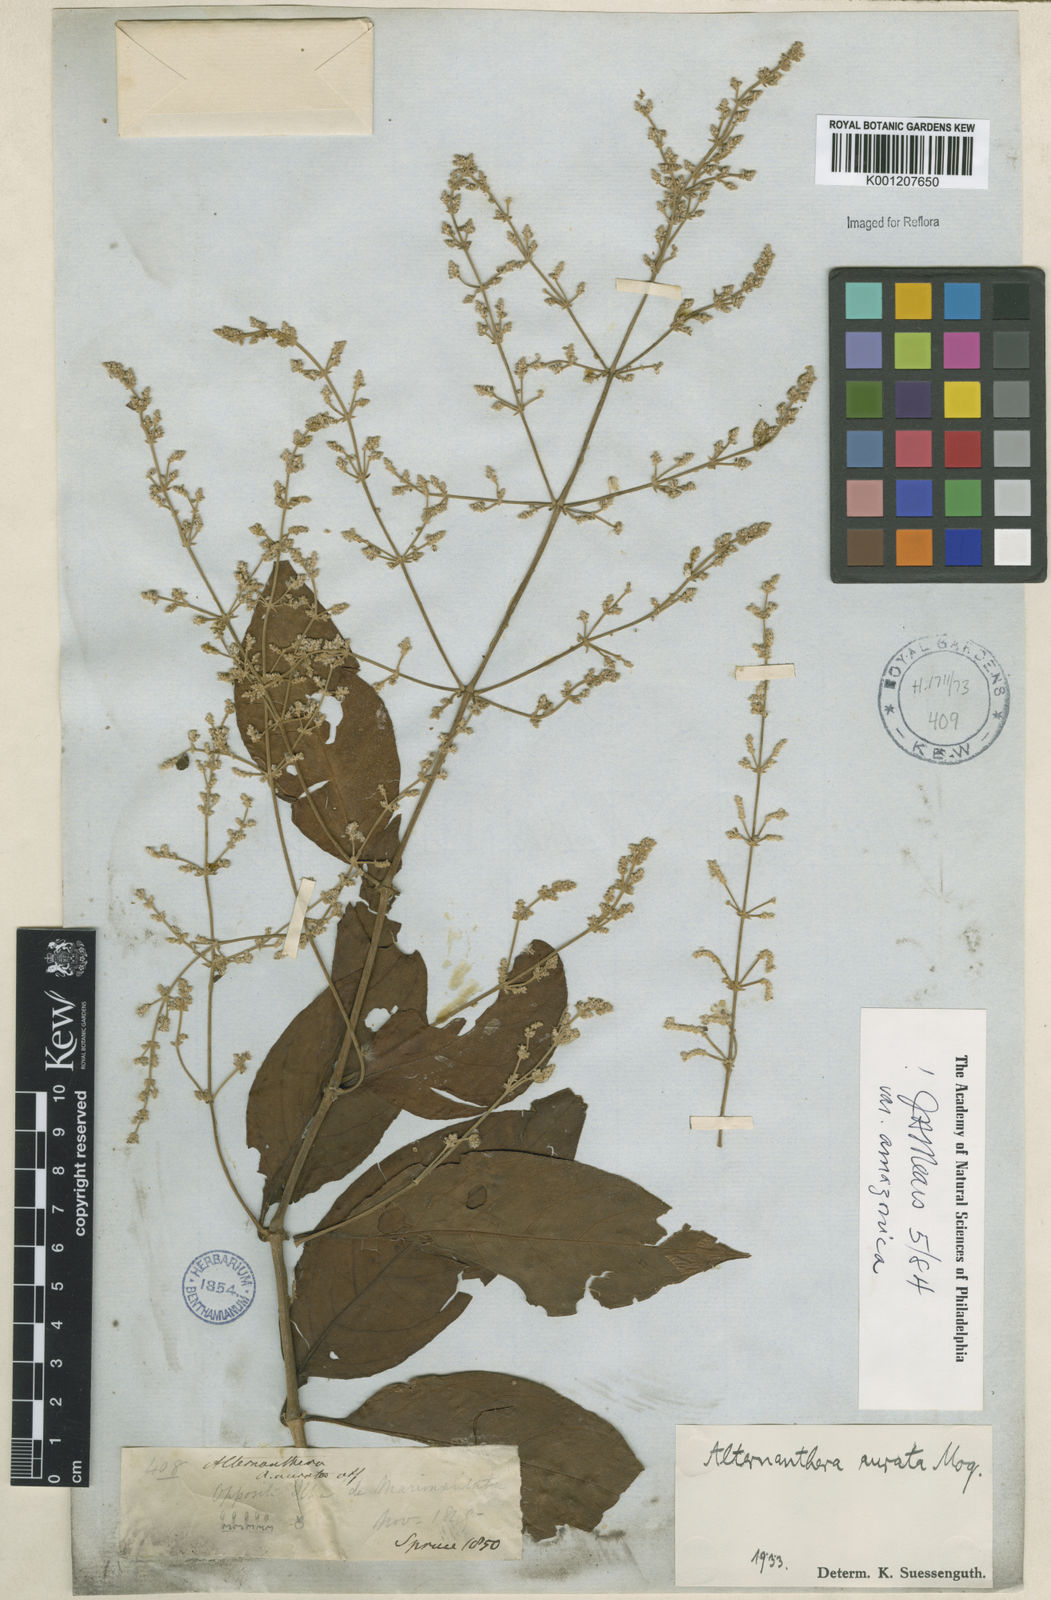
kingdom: Plantae
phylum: Tracheophyta
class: Magnoliopsida
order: Caryophyllales
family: Amaranthaceae
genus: Pedersenia
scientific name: Pedersenia argentata
